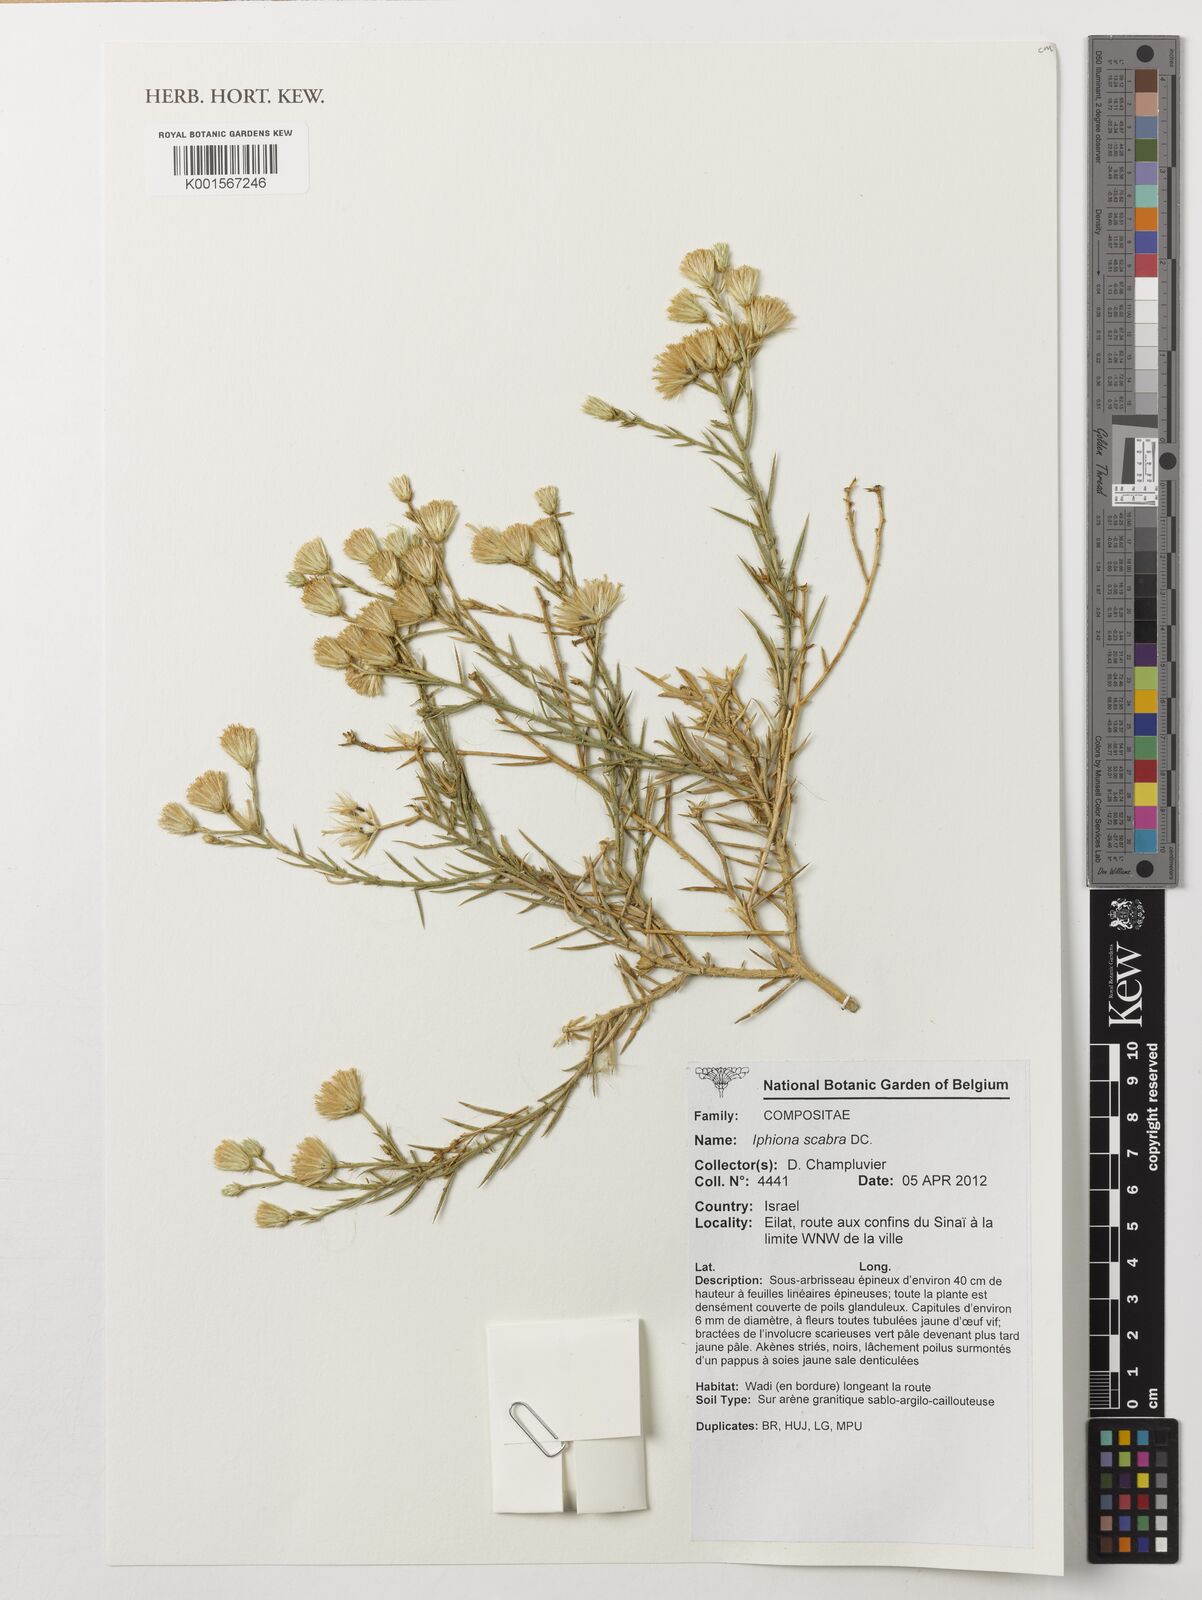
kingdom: Plantae
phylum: Tracheophyta
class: Magnoliopsida
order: Asterales
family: Asteraceae
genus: Iphiona
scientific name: Iphiona scabra
